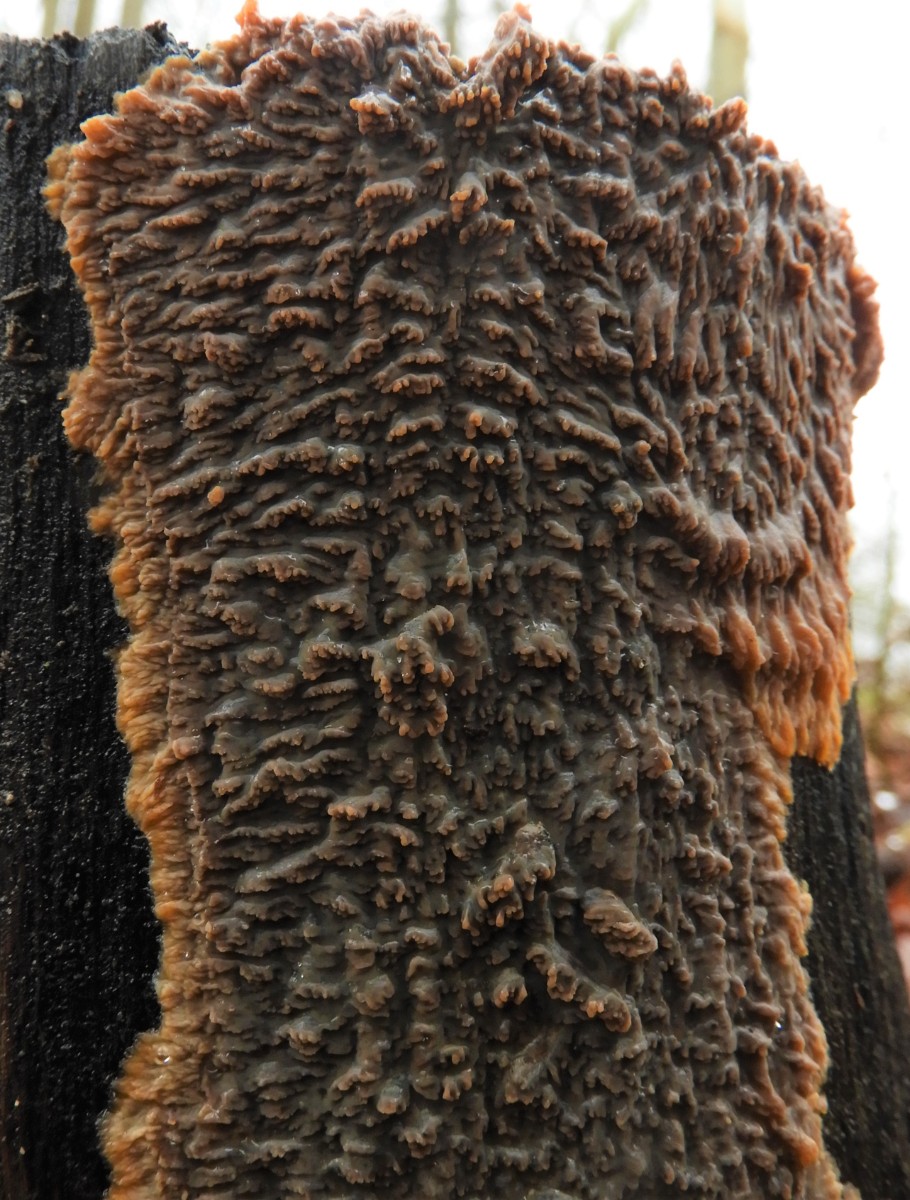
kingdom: Fungi
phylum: Basidiomycota
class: Agaricomycetes
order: Polyporales
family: Meruliaceae
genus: Phlebia
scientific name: Phlebia radiata
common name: stråle-åresvamp
